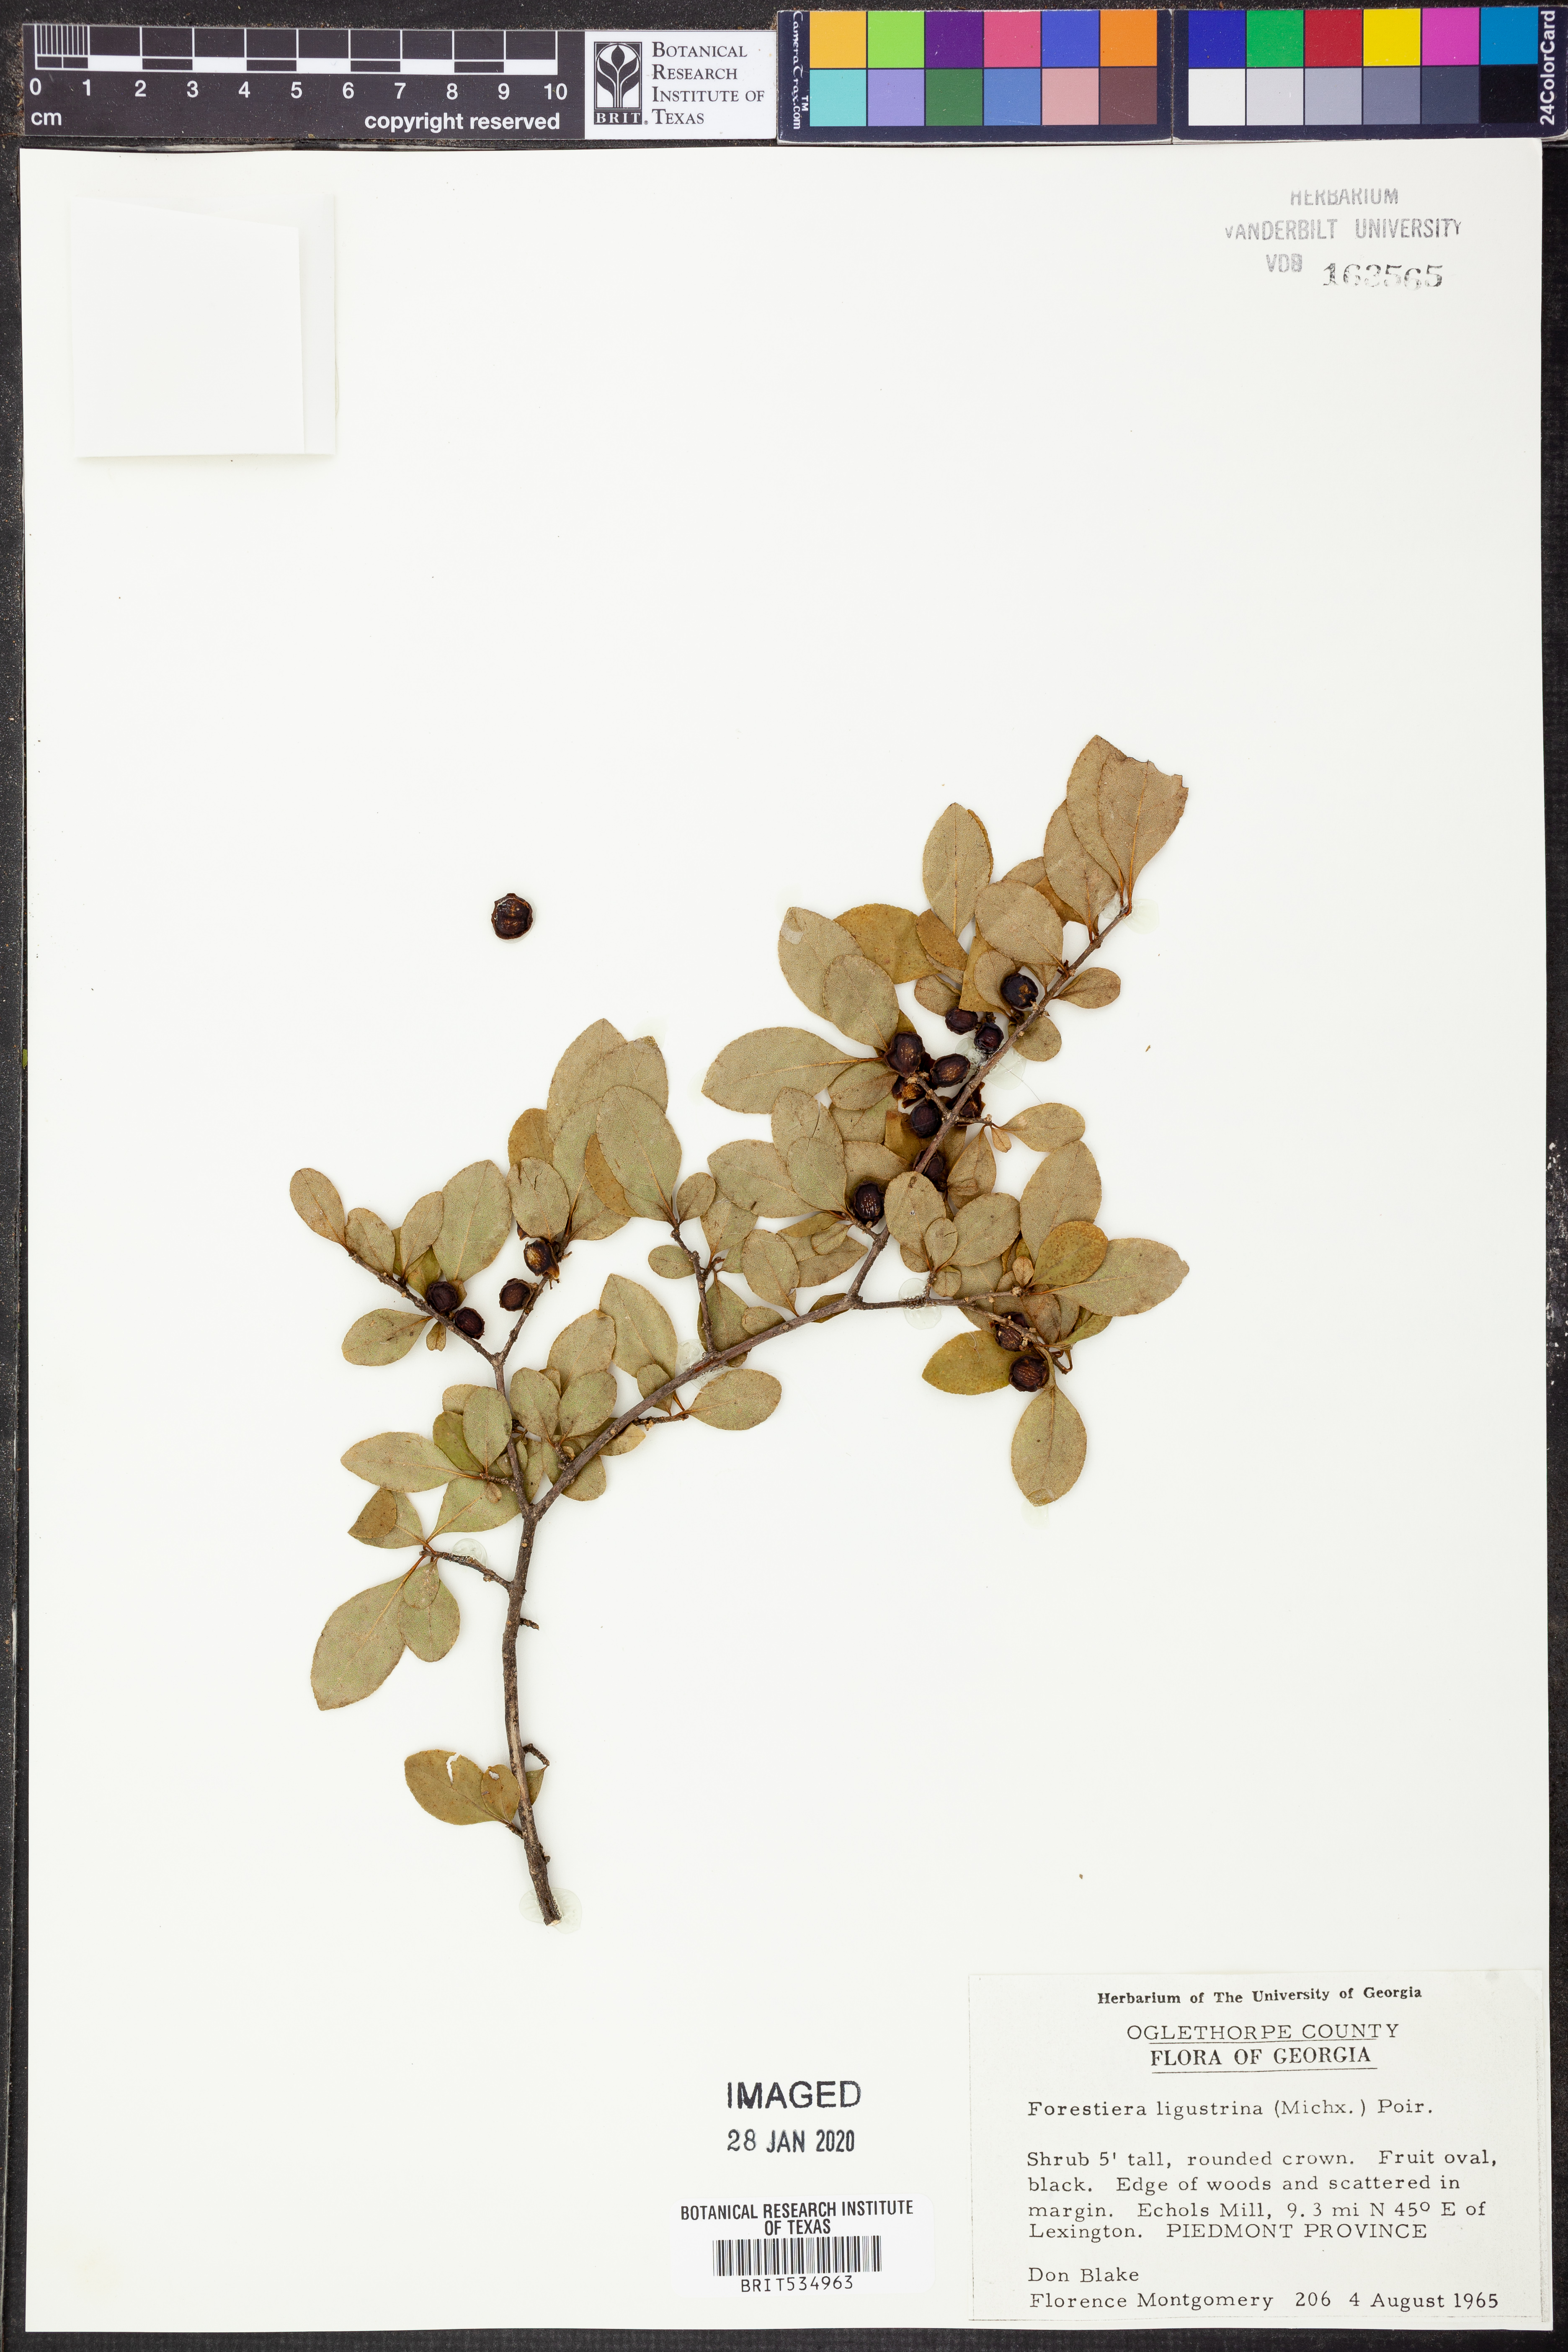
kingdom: Plantae
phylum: Tracheophyta
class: Magnoliopsida
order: Lamiales
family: Oleaceae
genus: Forestiera
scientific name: Forestiera ligustrina
